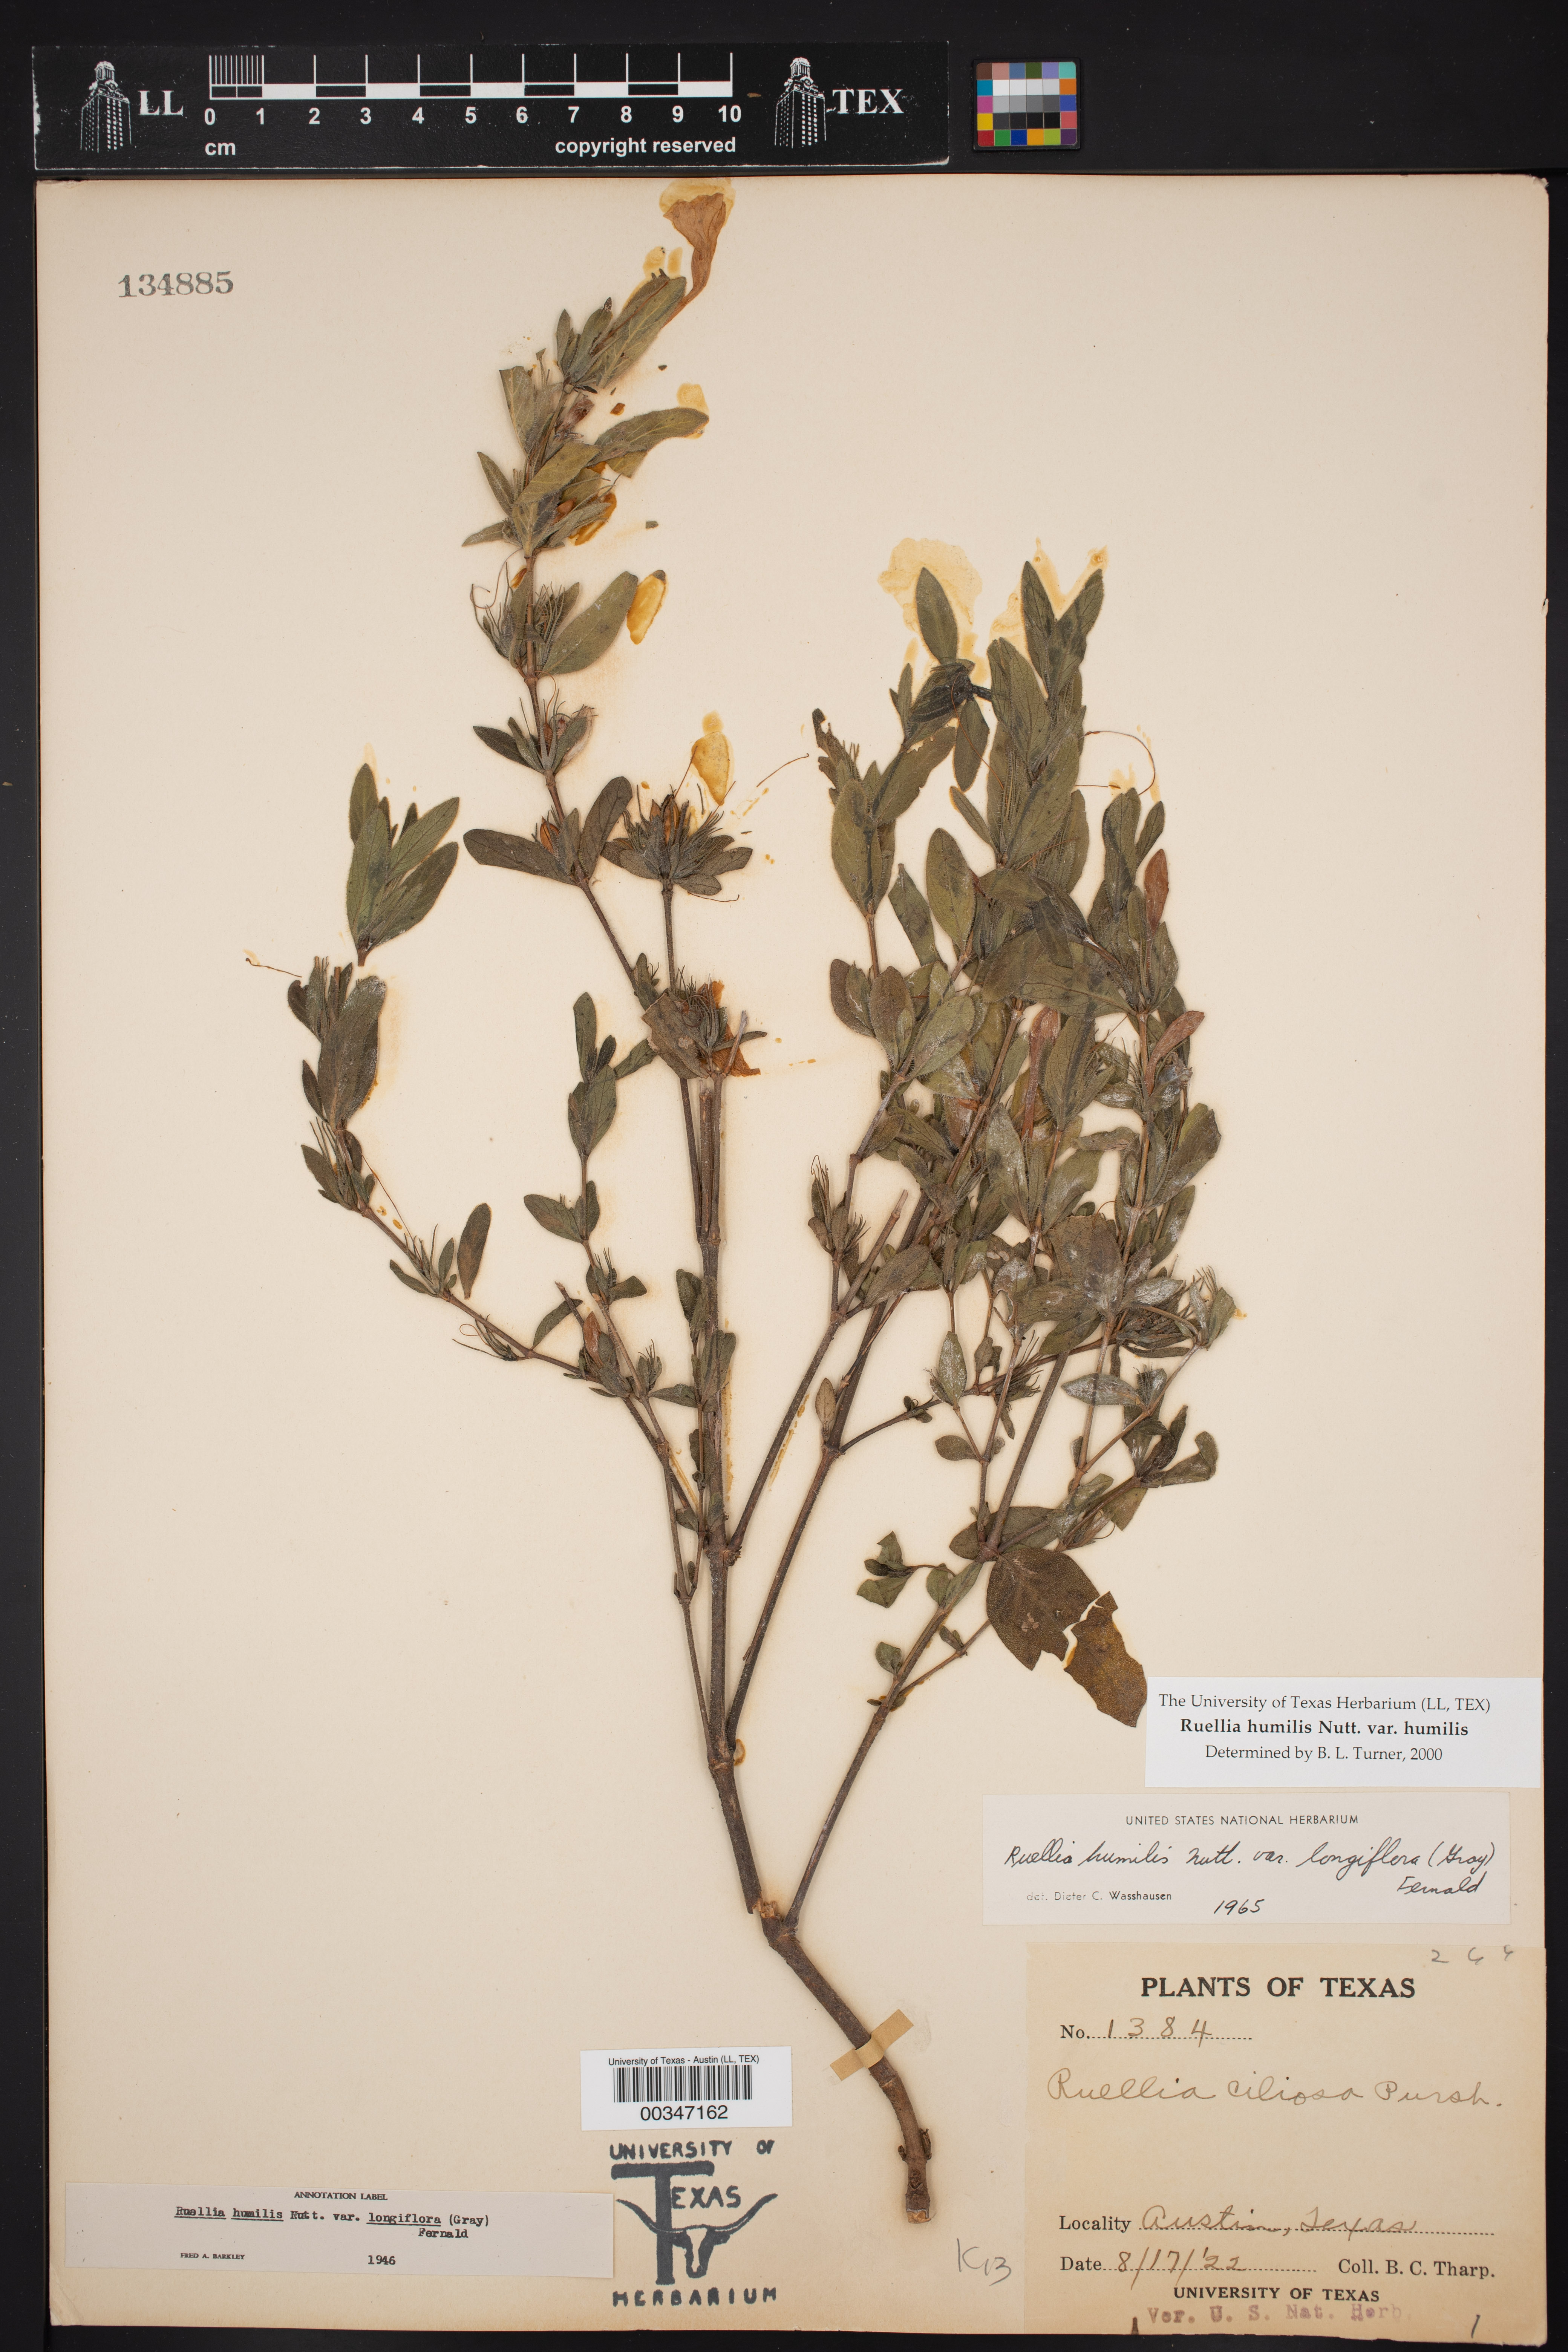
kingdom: Plantae
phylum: Tracheophyta
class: Magnoliopsida
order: Lamiales
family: Acanthaceae
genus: Ruellia
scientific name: Ruellia humilis
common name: Fringe-leaf ruellia
